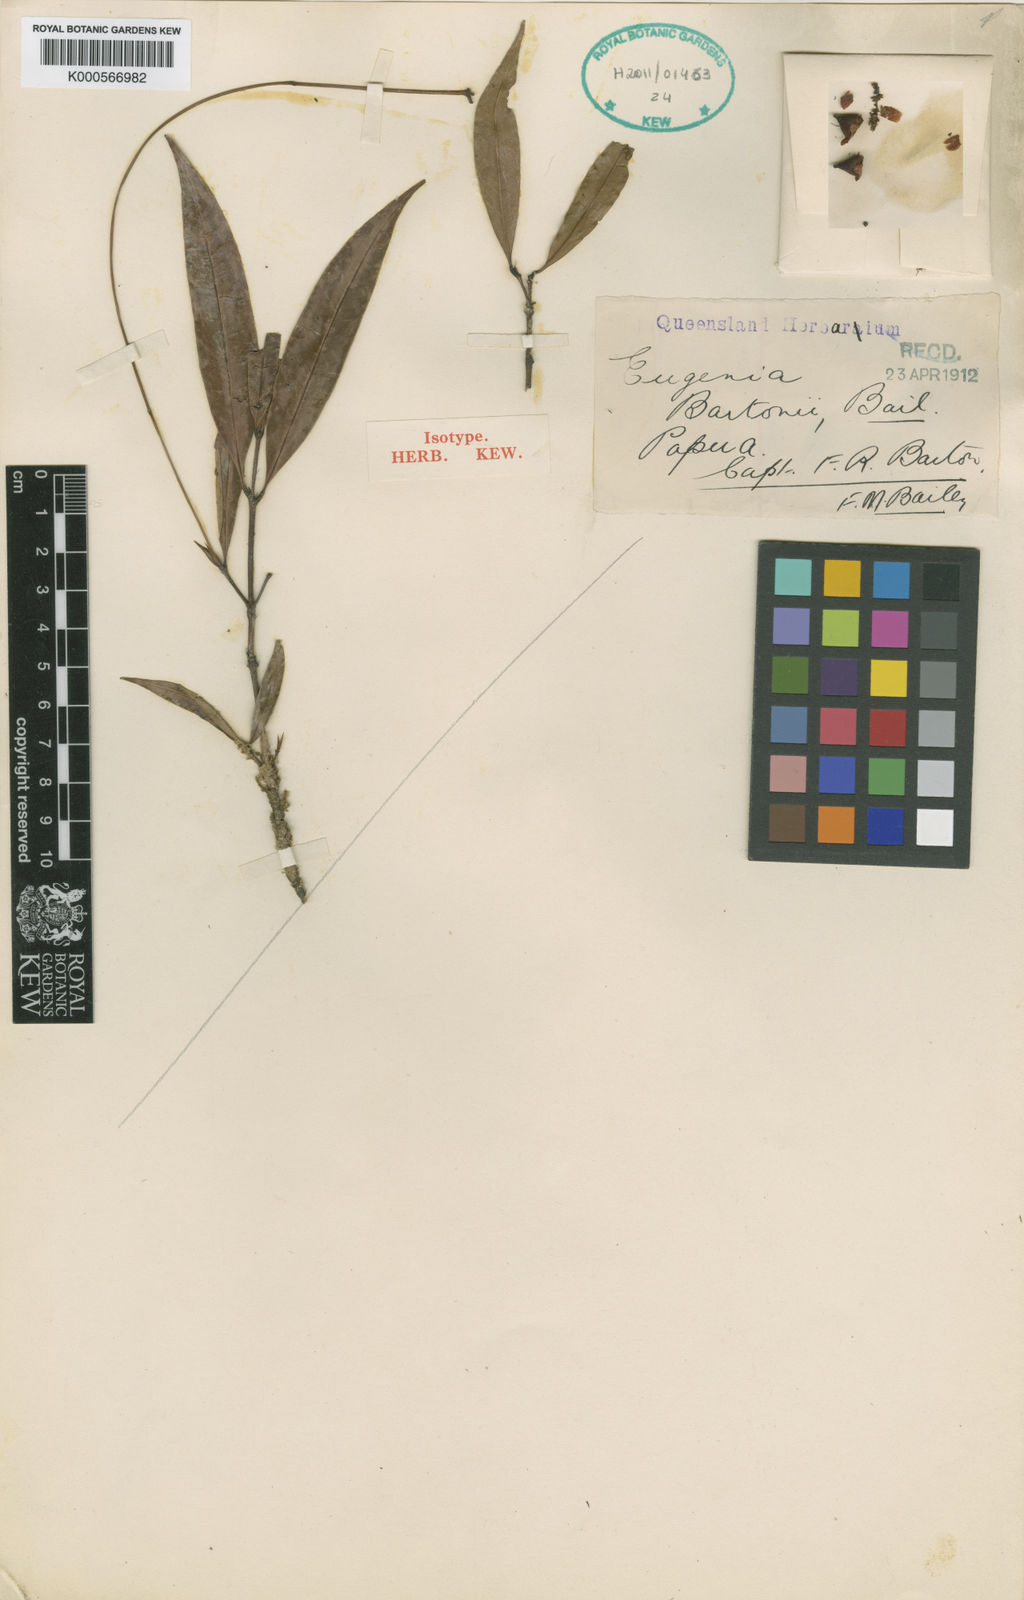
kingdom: Plantae
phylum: Tracheophyta
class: Magnoliopsida
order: Myrtales
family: Myrtaceae
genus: Syzygium
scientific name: Syzygium bartonii
